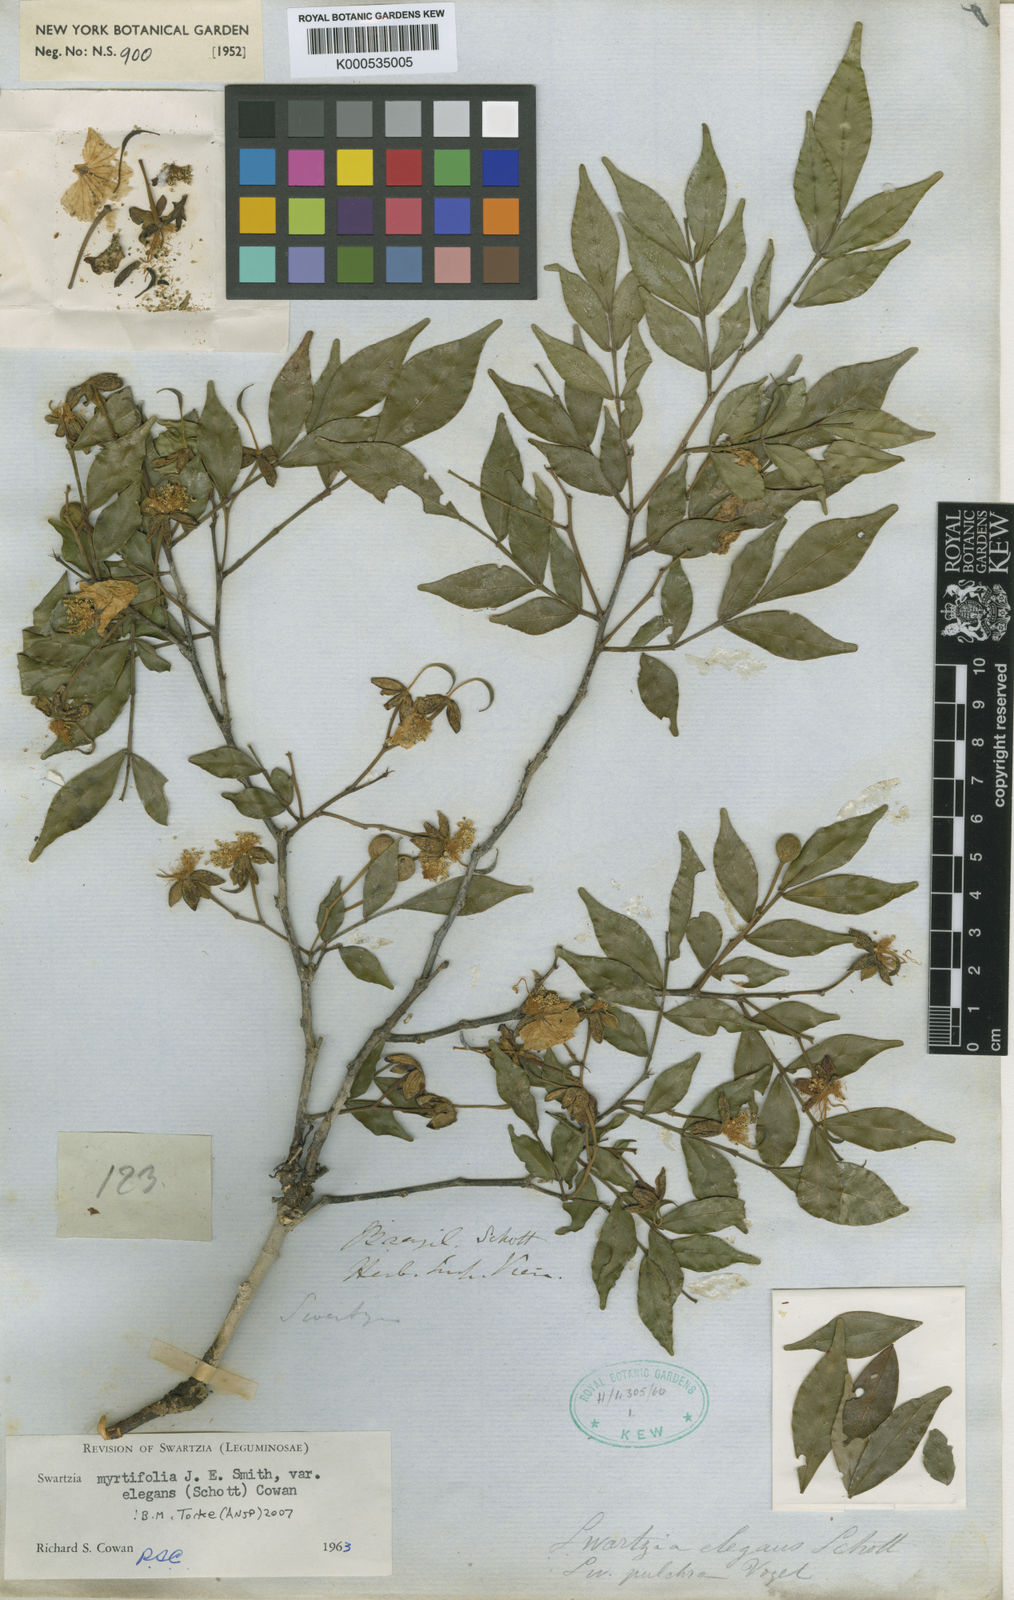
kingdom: Plantae
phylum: Tracheophyta
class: Magnoliopsida
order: Fabales
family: Fabaceae
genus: Swartzia
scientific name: Swartzia myrtifolia
